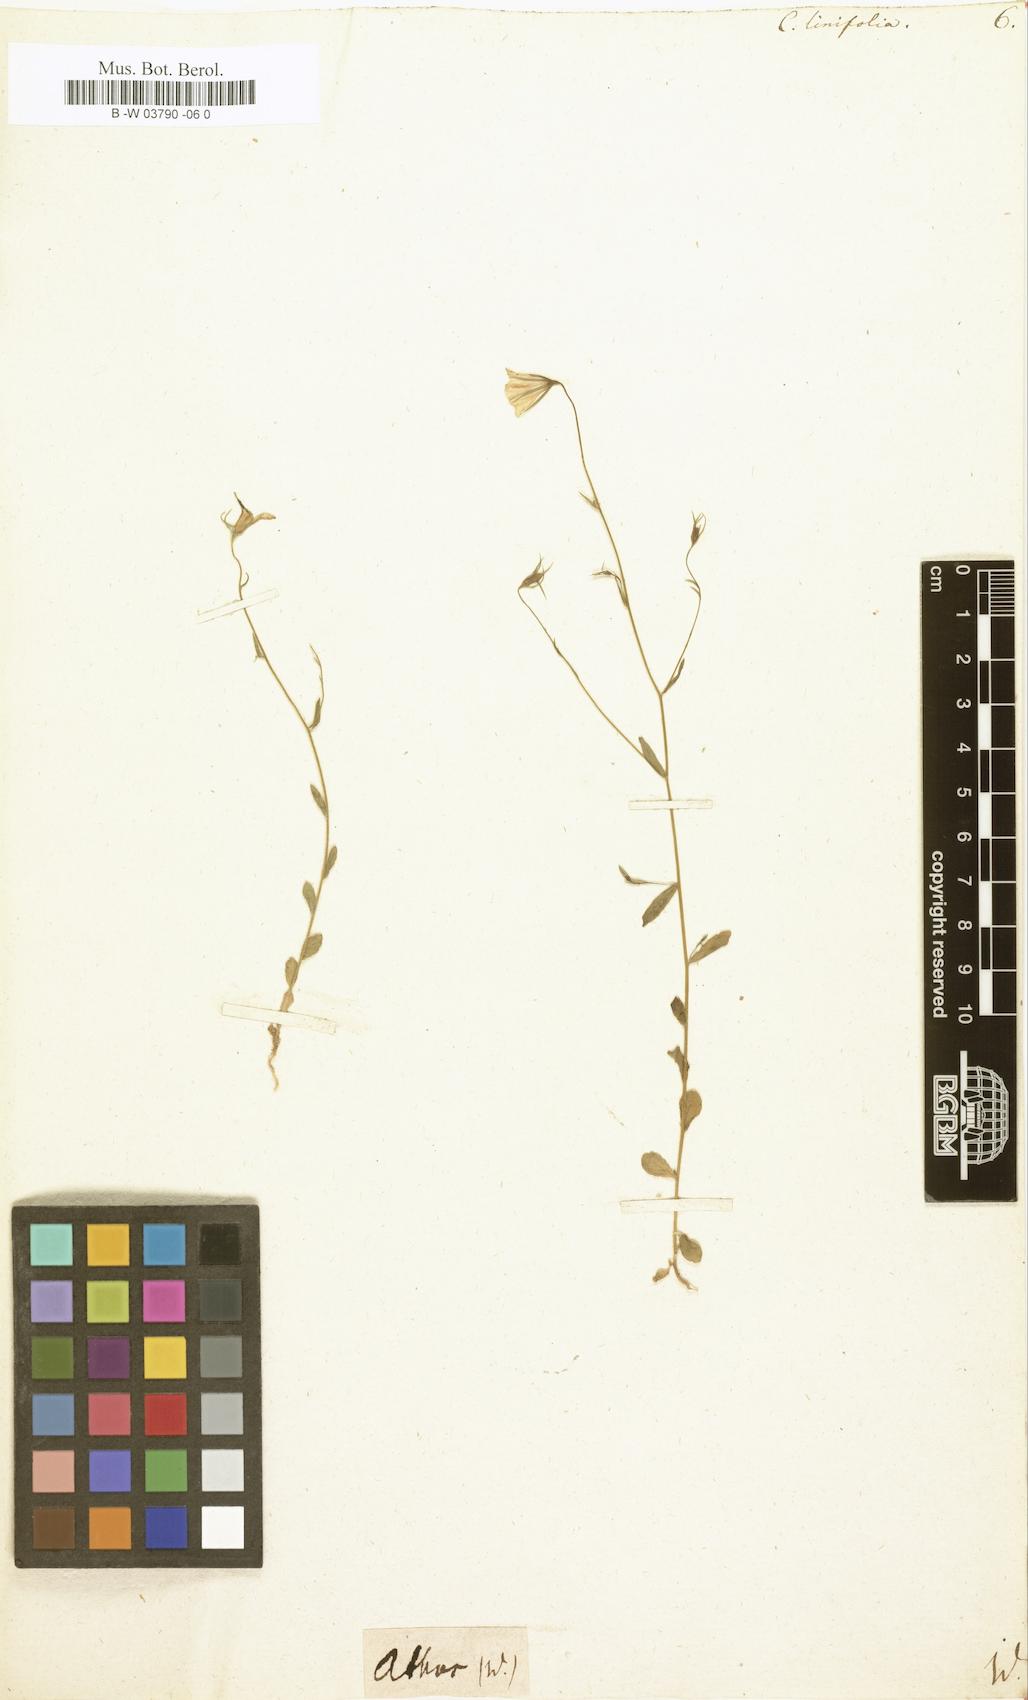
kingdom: Plantae
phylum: Tracheophyta
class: Magnoliopsida
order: Asterales
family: Campanulaceae
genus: Campanula
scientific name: Campanula
